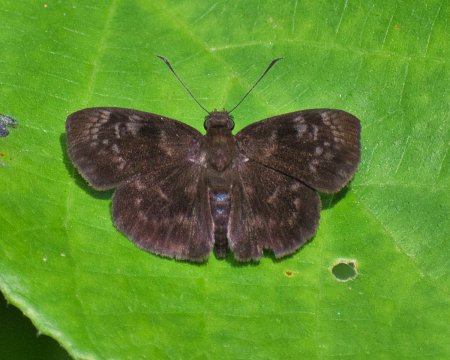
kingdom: Animalia
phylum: Arthropoda
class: Insecta
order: Lepidoptera
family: Hesperiidae
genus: Ouleus
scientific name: Ouleus fridericus
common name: Panna Skipper
